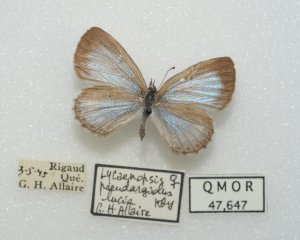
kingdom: Animalia
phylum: Arthropoda
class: Insecta
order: Lepidoptera
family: Lycaenidae
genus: Celastrina
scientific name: Celastrina lucia
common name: Northern Spring Azure
